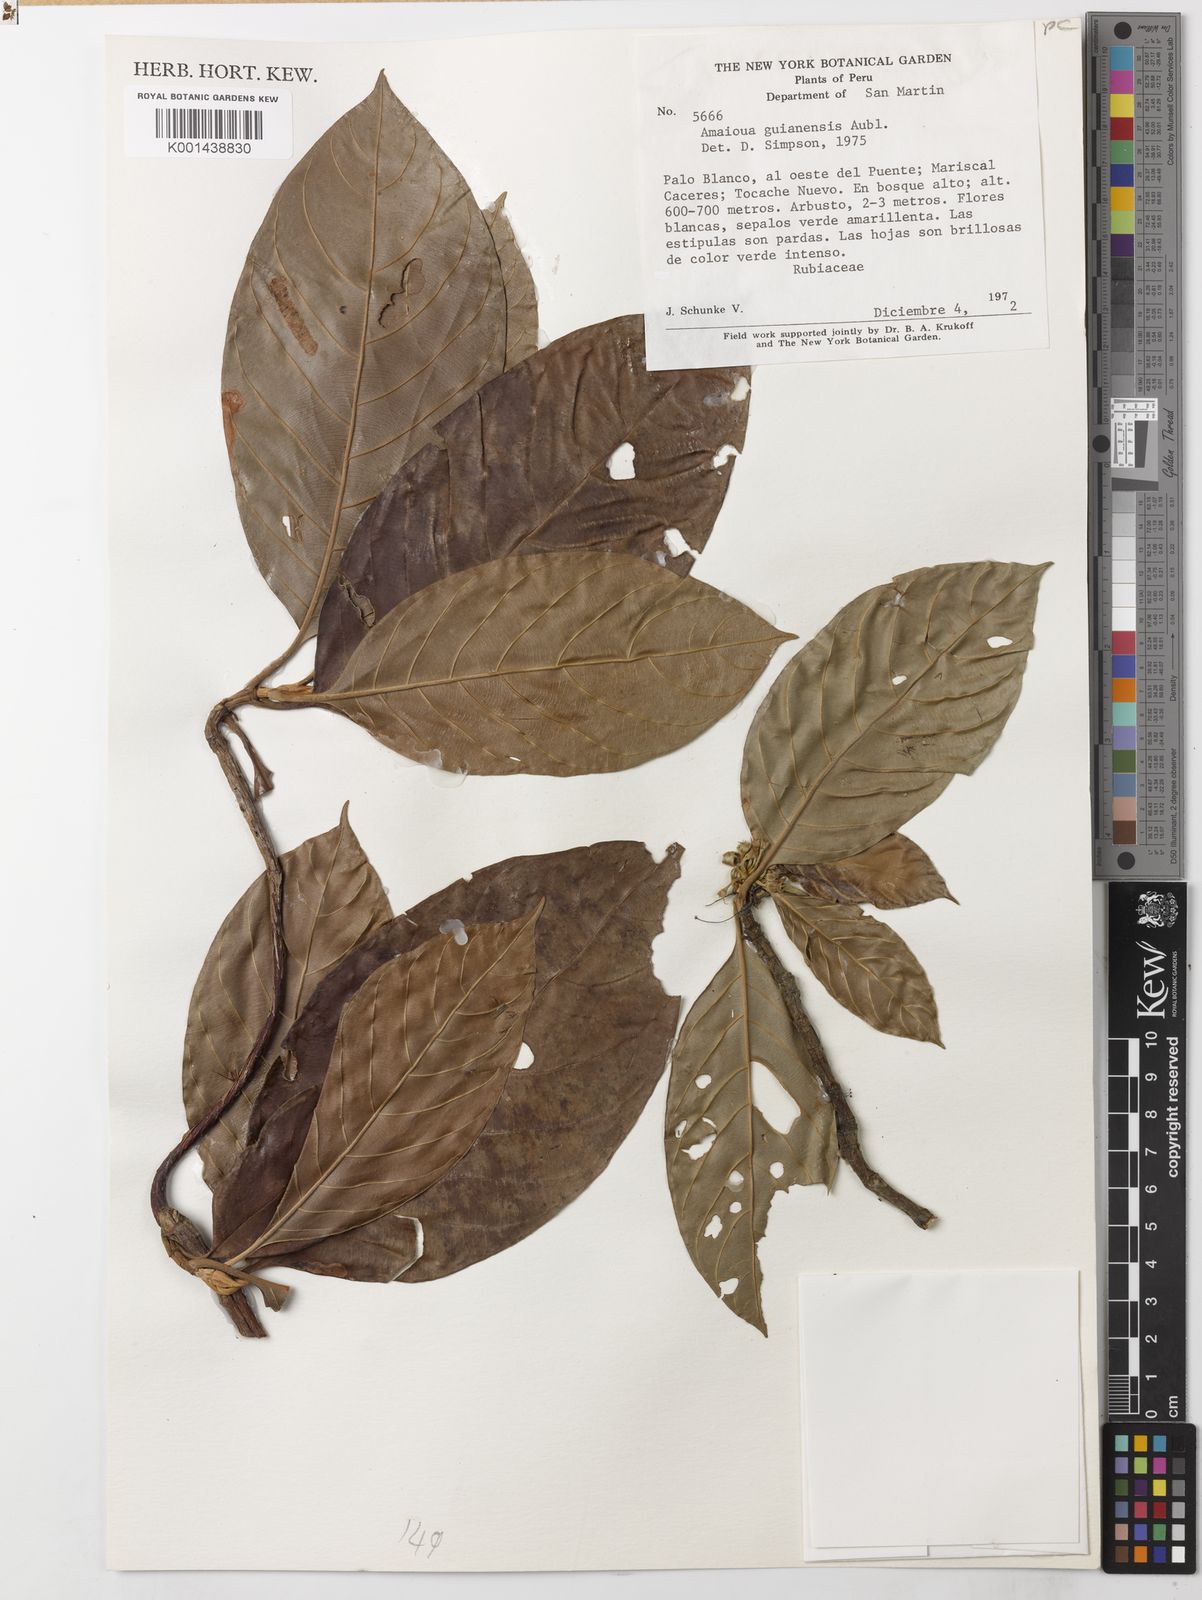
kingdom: Plantae
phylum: Tracheophyta
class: Magnoliopsida
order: Gentianales
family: Rubiaceae
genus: Amaioua
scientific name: Amaioua guianensis
